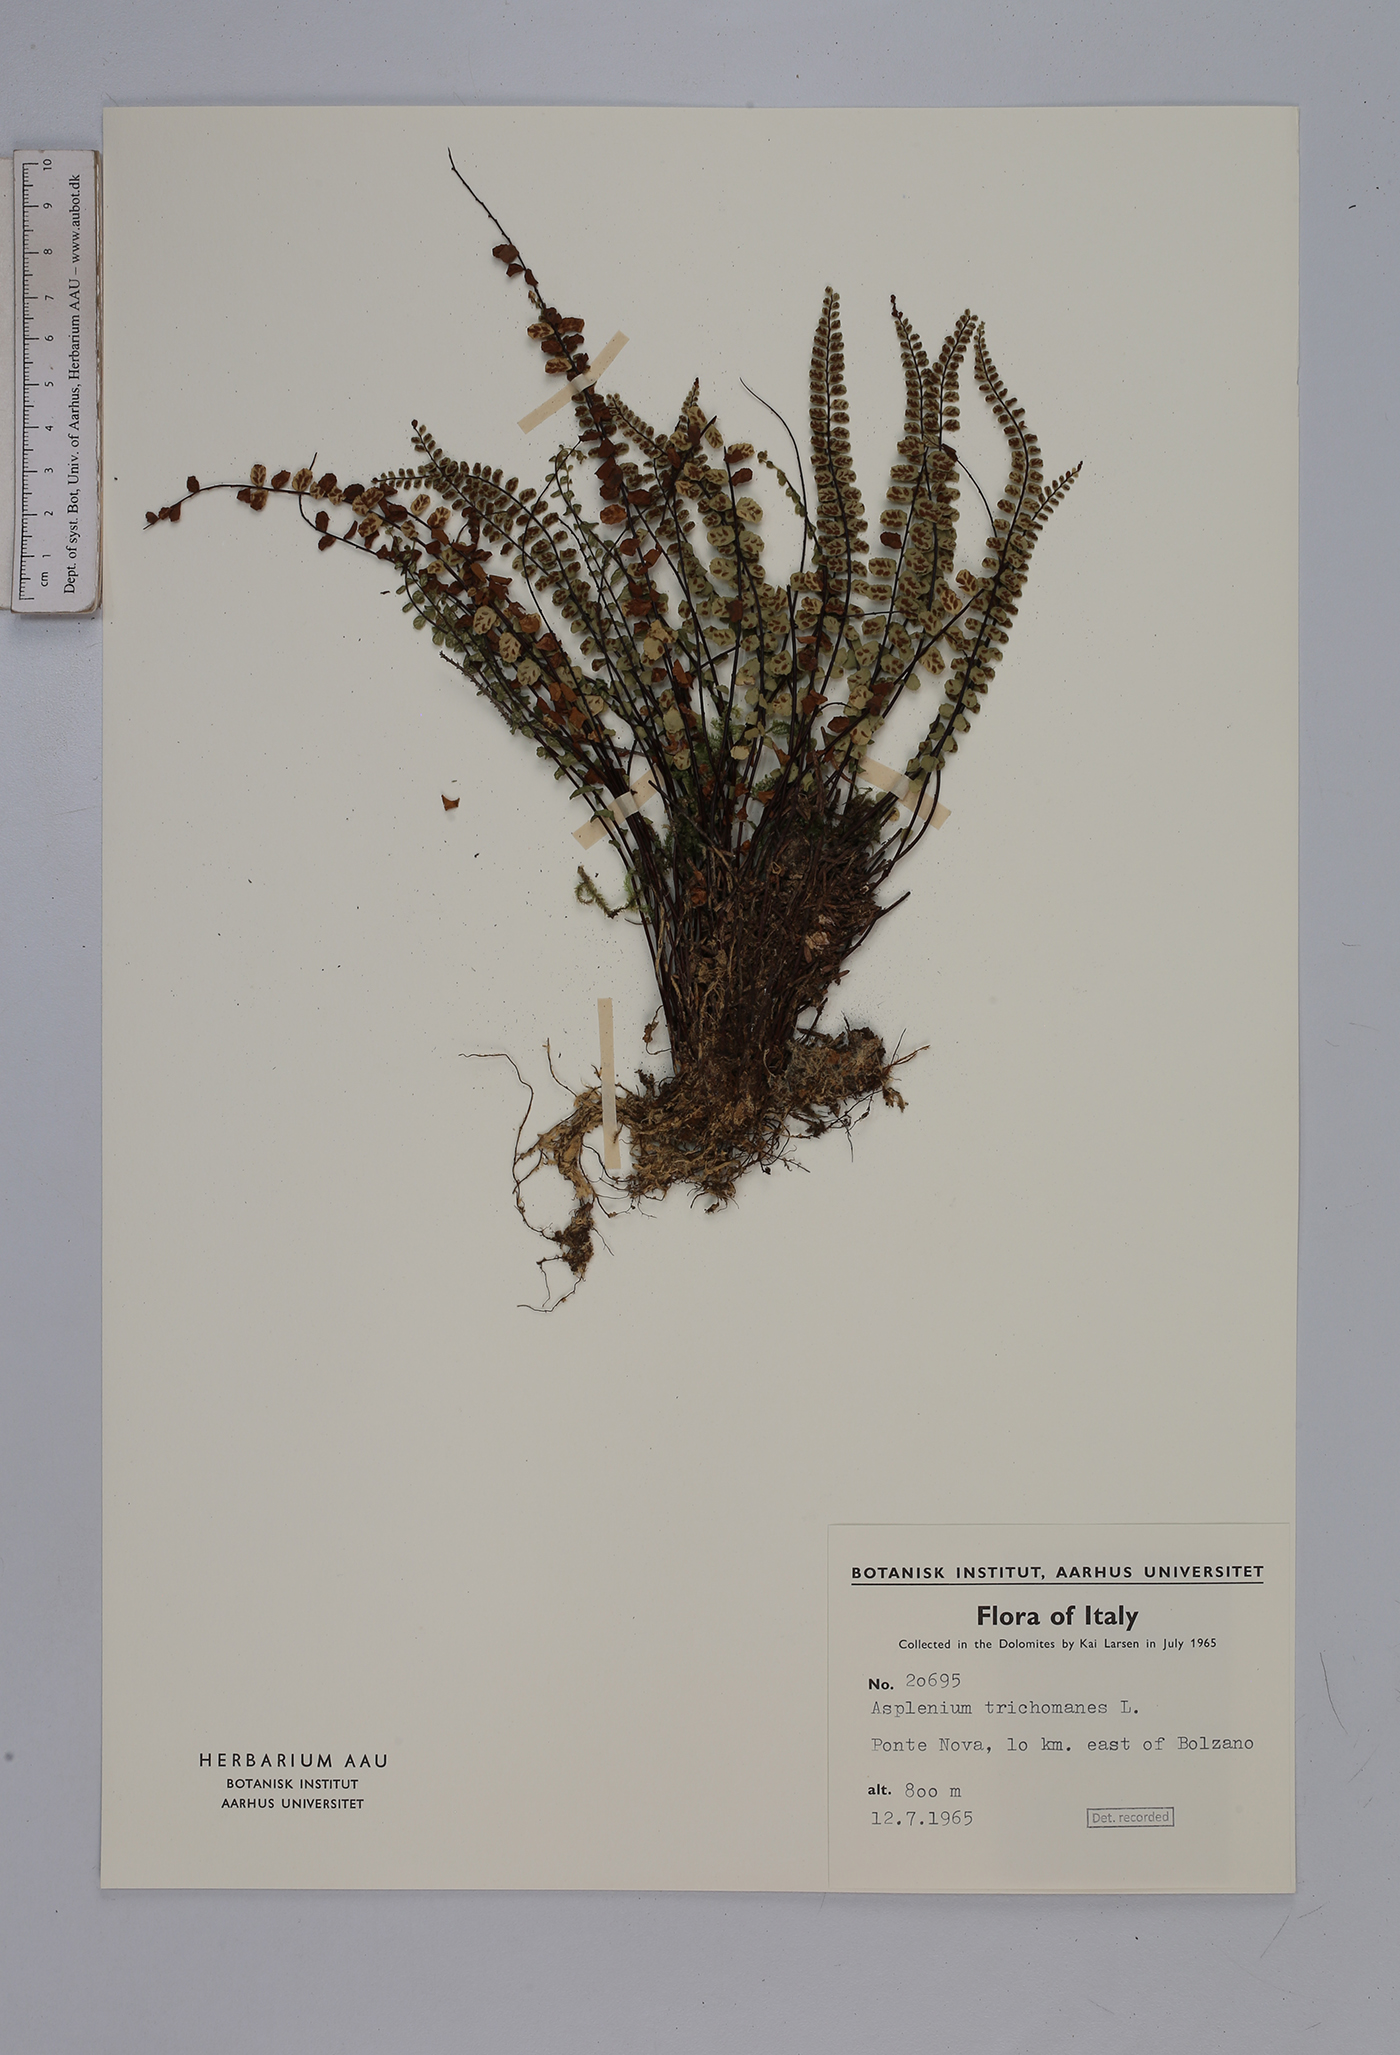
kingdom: Plantae
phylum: Tracheophyta
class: Polypodiopsida
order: Polypodiales
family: Aspleniaceae
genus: Asplenium
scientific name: Asplenium trichomanes
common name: Maidenhair spleenwort
